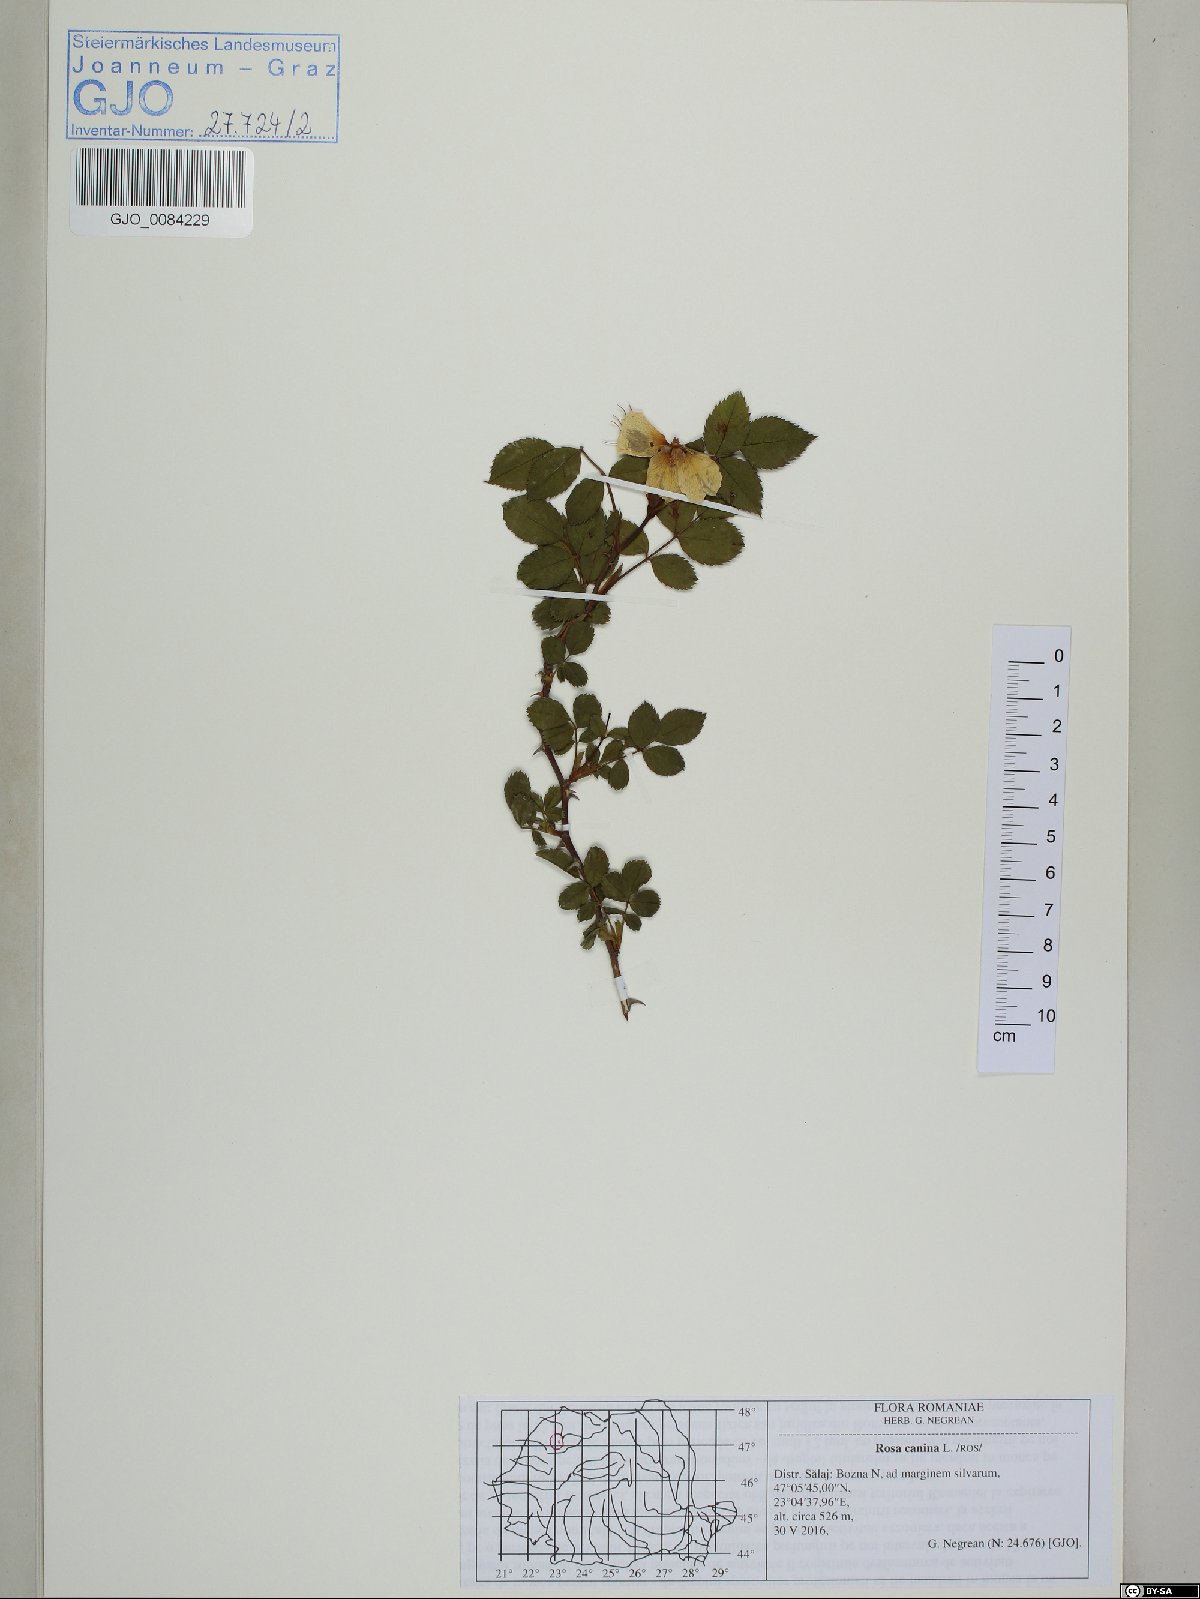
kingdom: Plantae
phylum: Tracheophyta
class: Magnoliopsida
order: Rosales
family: Rosaceae
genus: Rosa
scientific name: Rosa canina
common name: Dog rose
